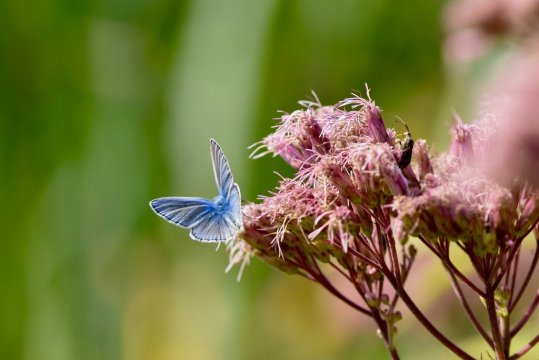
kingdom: Animalia
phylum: Arthropoda
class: Insecta
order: Lepidoptera
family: Lycaenidae
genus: Polyommatus
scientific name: Polyommatus icarus
